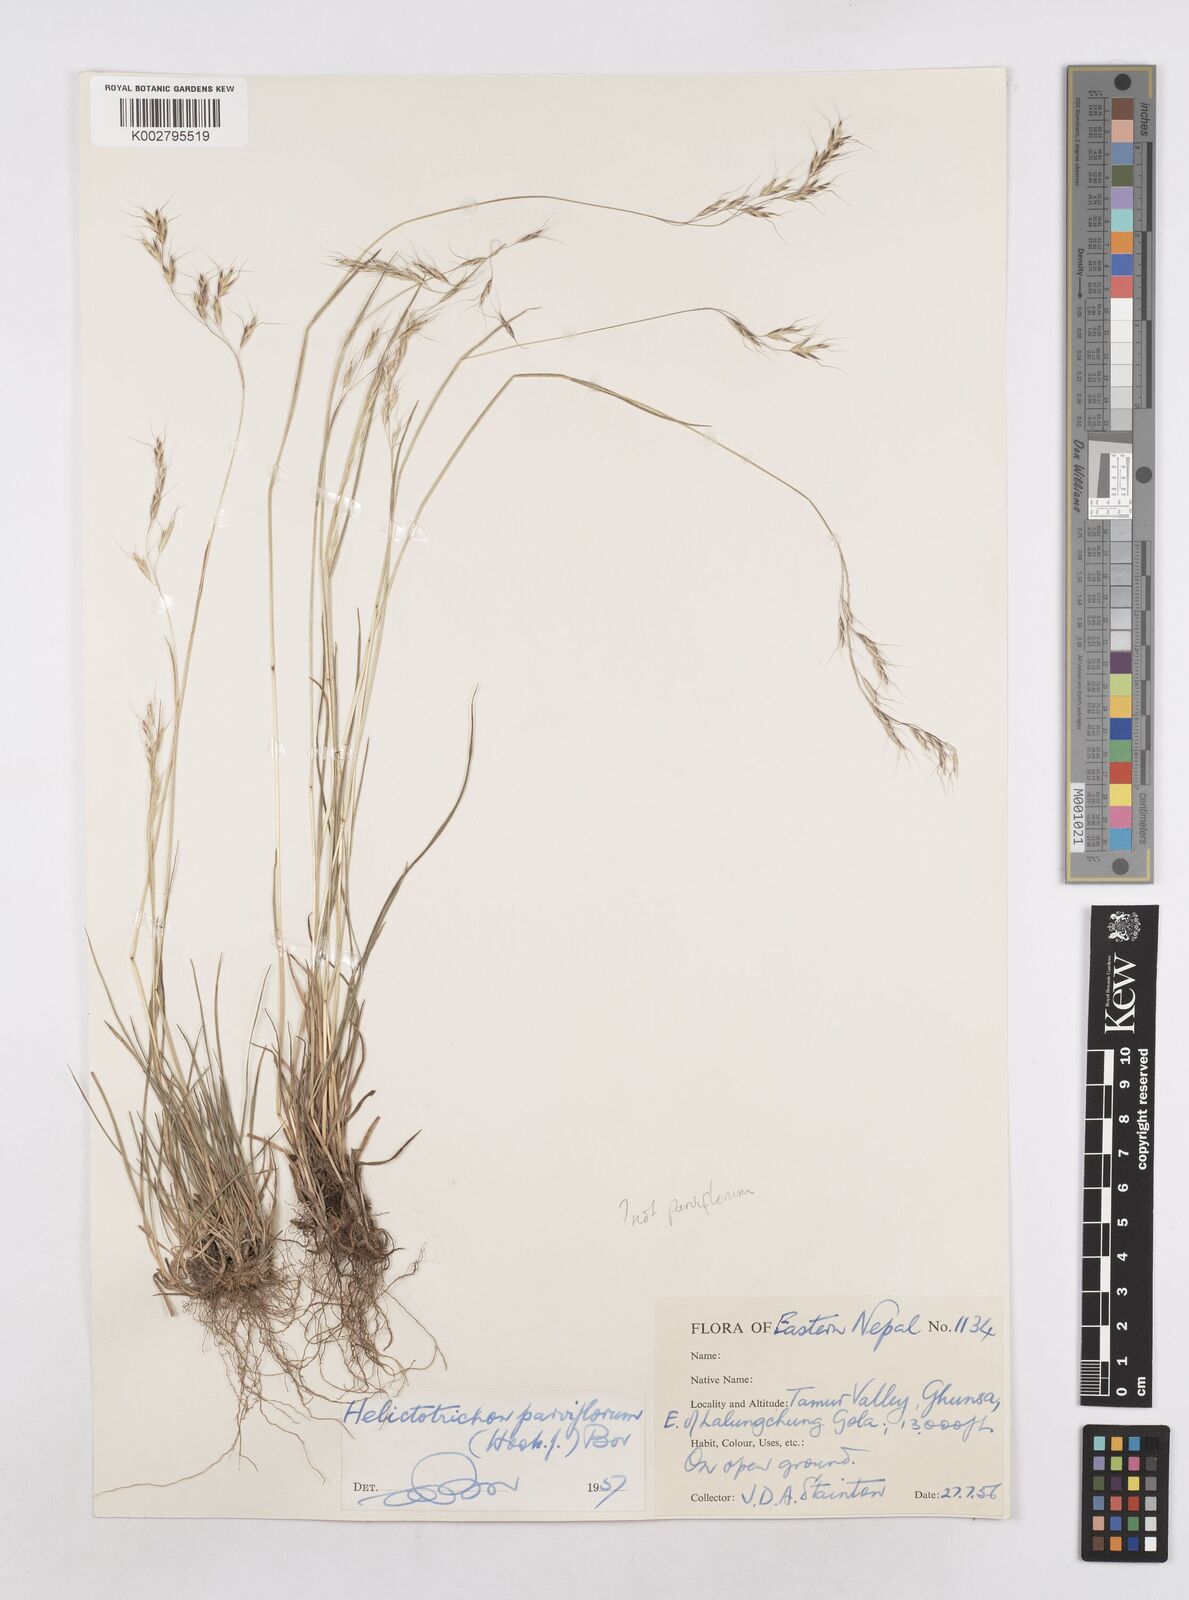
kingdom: Plantae
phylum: Tracheophyta
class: Liliopsida
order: Poales
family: Poaceae
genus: Trisetopsis
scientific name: Trisetopsis junghuhnii
